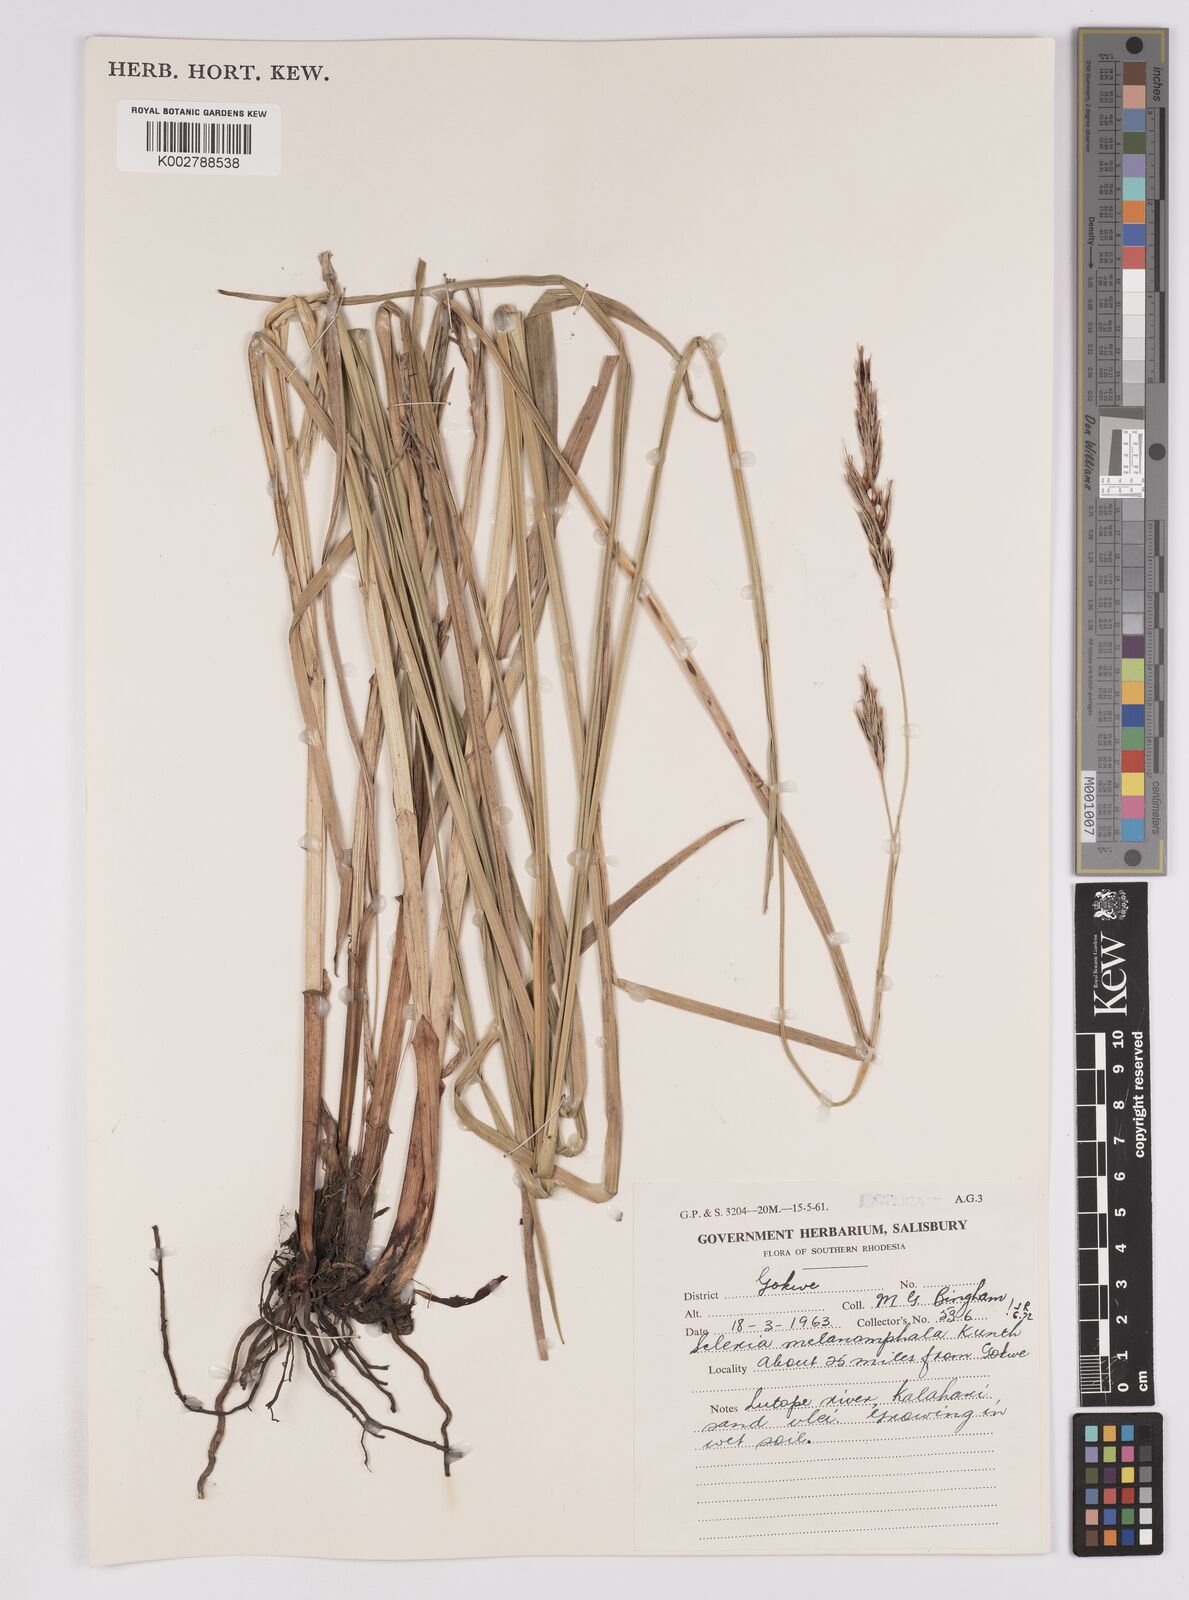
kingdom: Plantae
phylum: Tracheophyta
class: Liliopsida
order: Poales
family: Cyperaceae
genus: Scleria
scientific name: Scleria melanomphala
